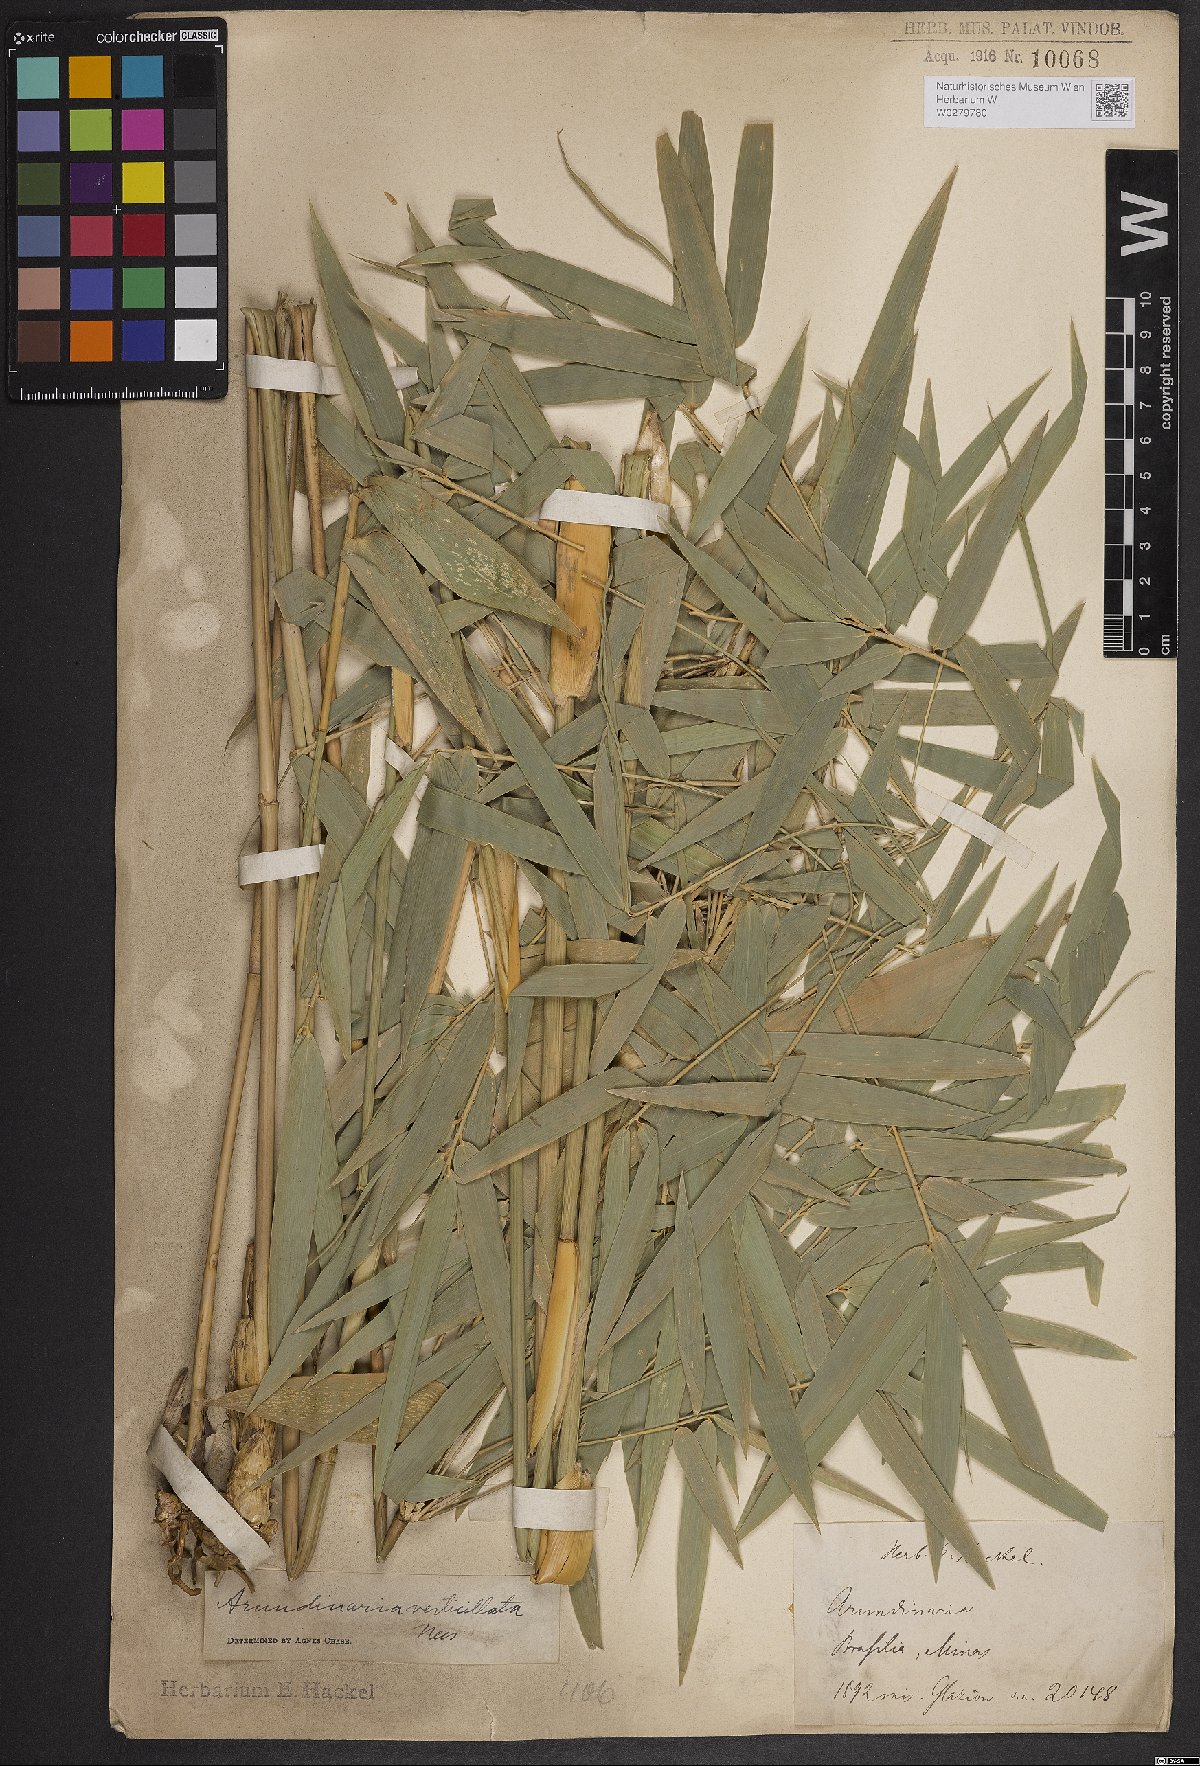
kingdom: Plantae
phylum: Tracheophyta
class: Liliopsida
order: Poales
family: Poaceae
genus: Actinocladum
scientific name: Actinocladum verticillatum
